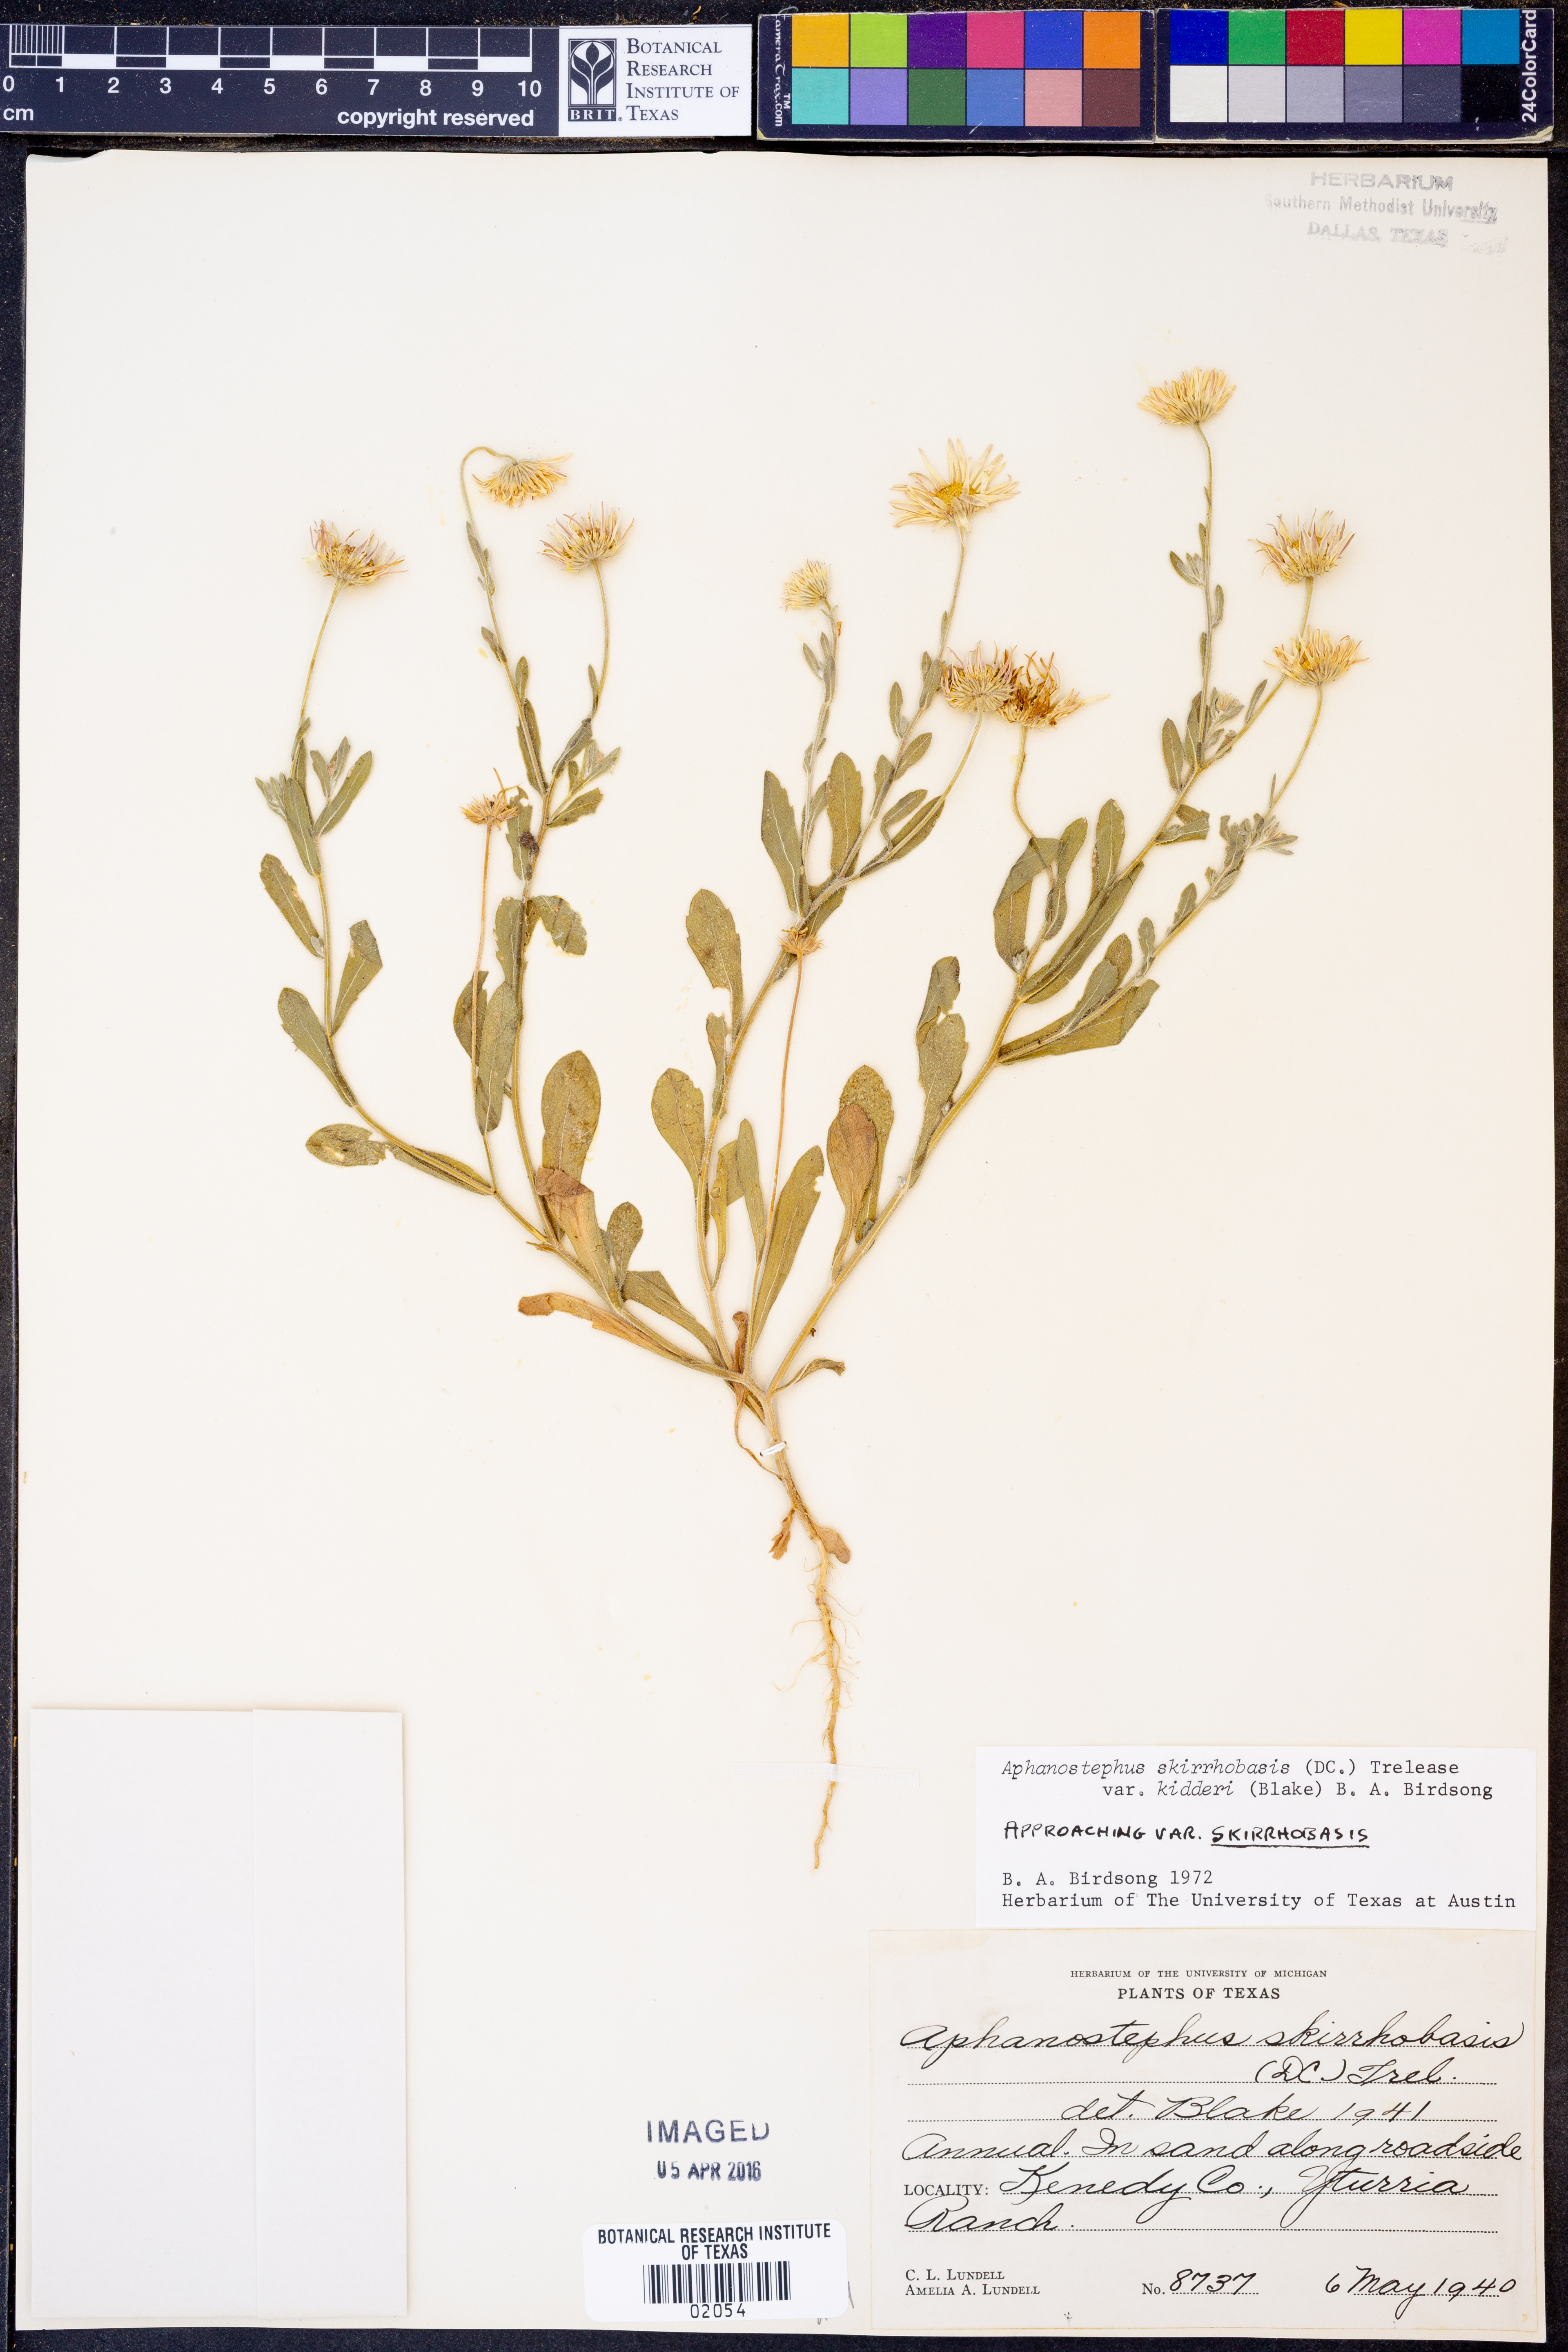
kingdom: Plantae
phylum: Tracheophyta
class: Magnoliopsida
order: Asterales
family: Asteraceae
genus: Aphanostephus
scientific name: Aphanostephus skirrhobasis
